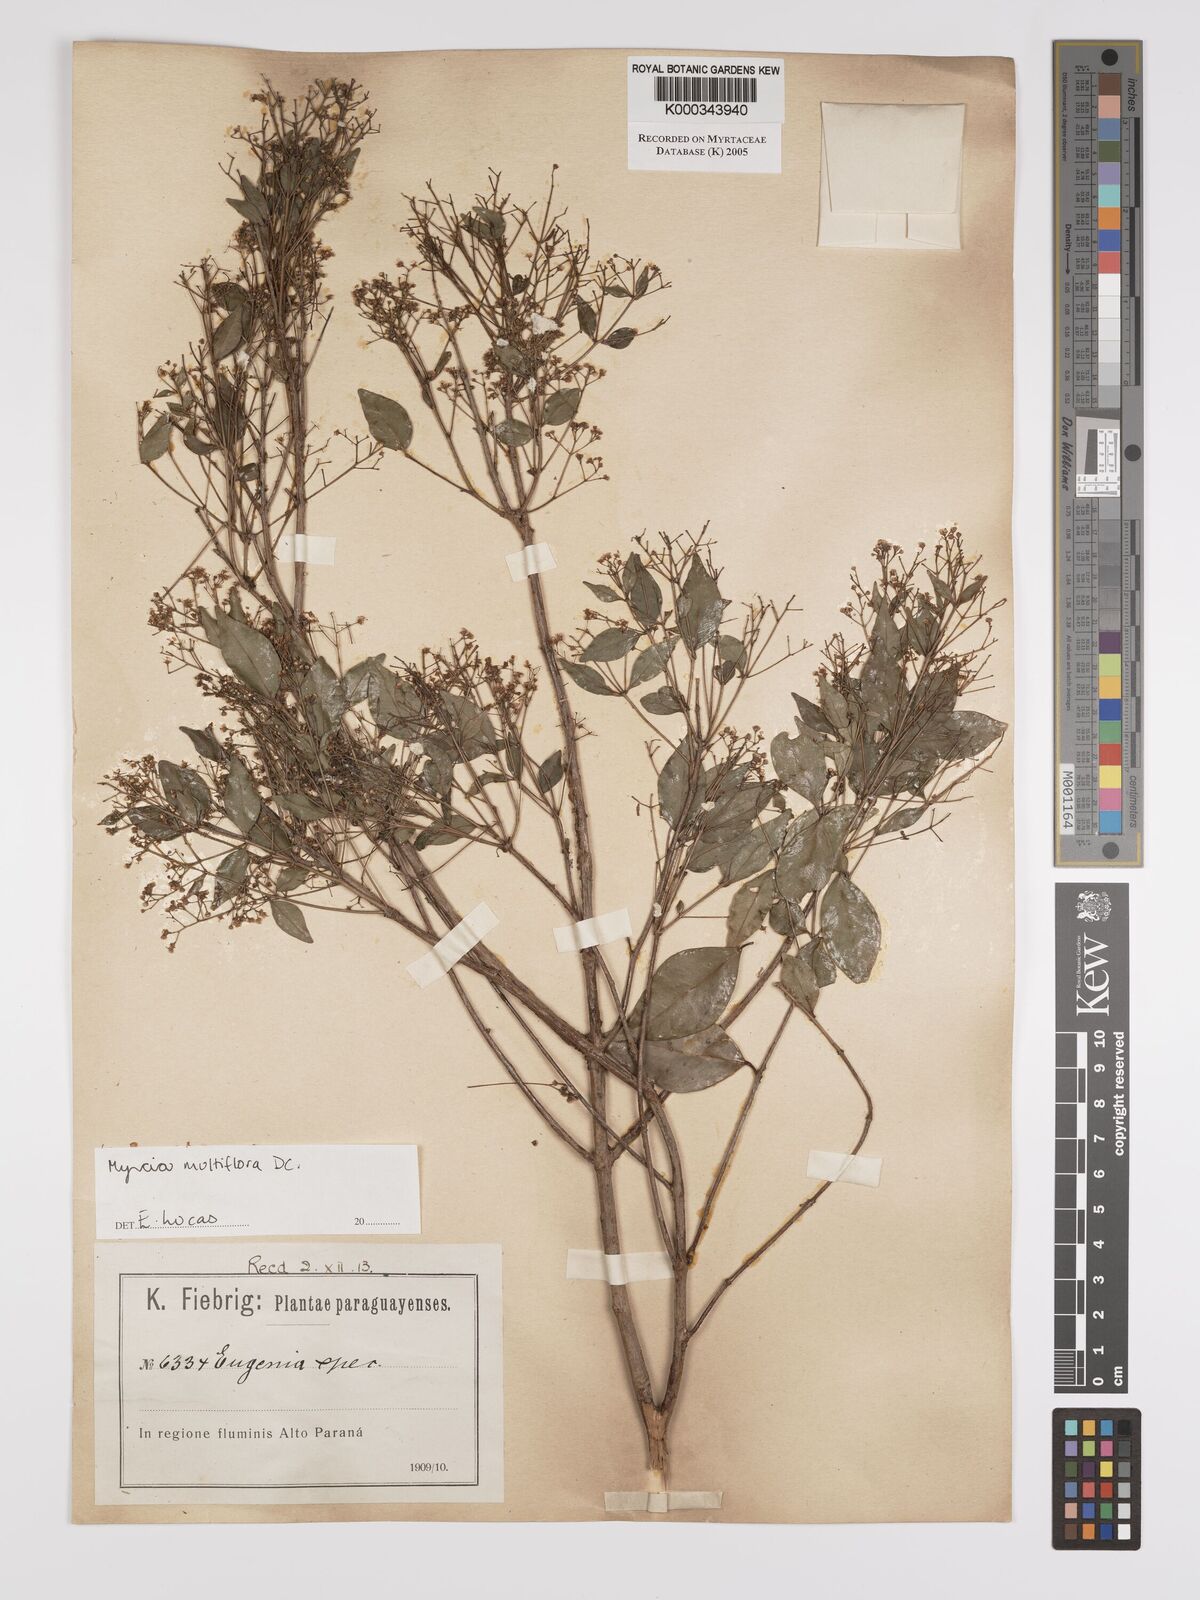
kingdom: Plantae
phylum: Tracheophyta
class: Magnoliopsida
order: Myrtales
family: Myrtaceae
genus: Myrcia
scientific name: Myrcia multiflora
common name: Pedra hume
